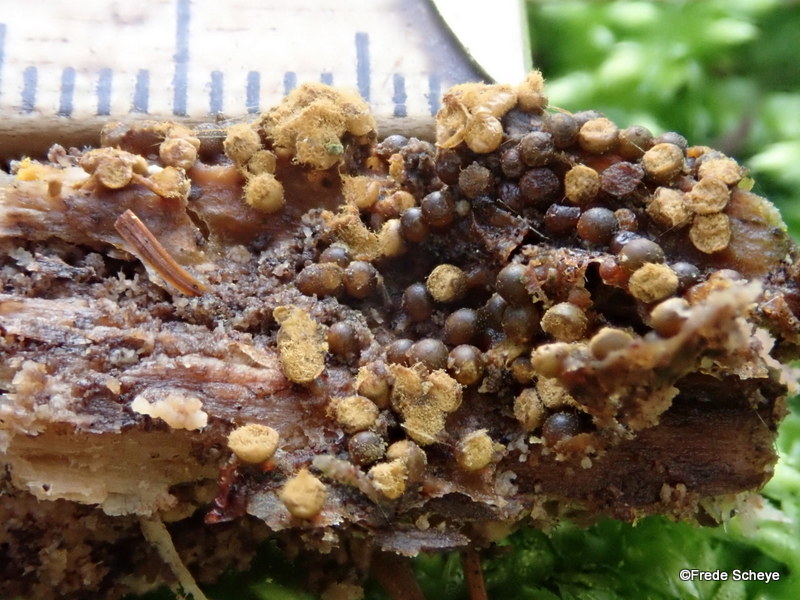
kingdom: Protozoa
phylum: Mycetozoa
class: Myxomycetes
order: Trichiales
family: Trichiaceae
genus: Trichia
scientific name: Trichia varia
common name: foranderlig hårbold
